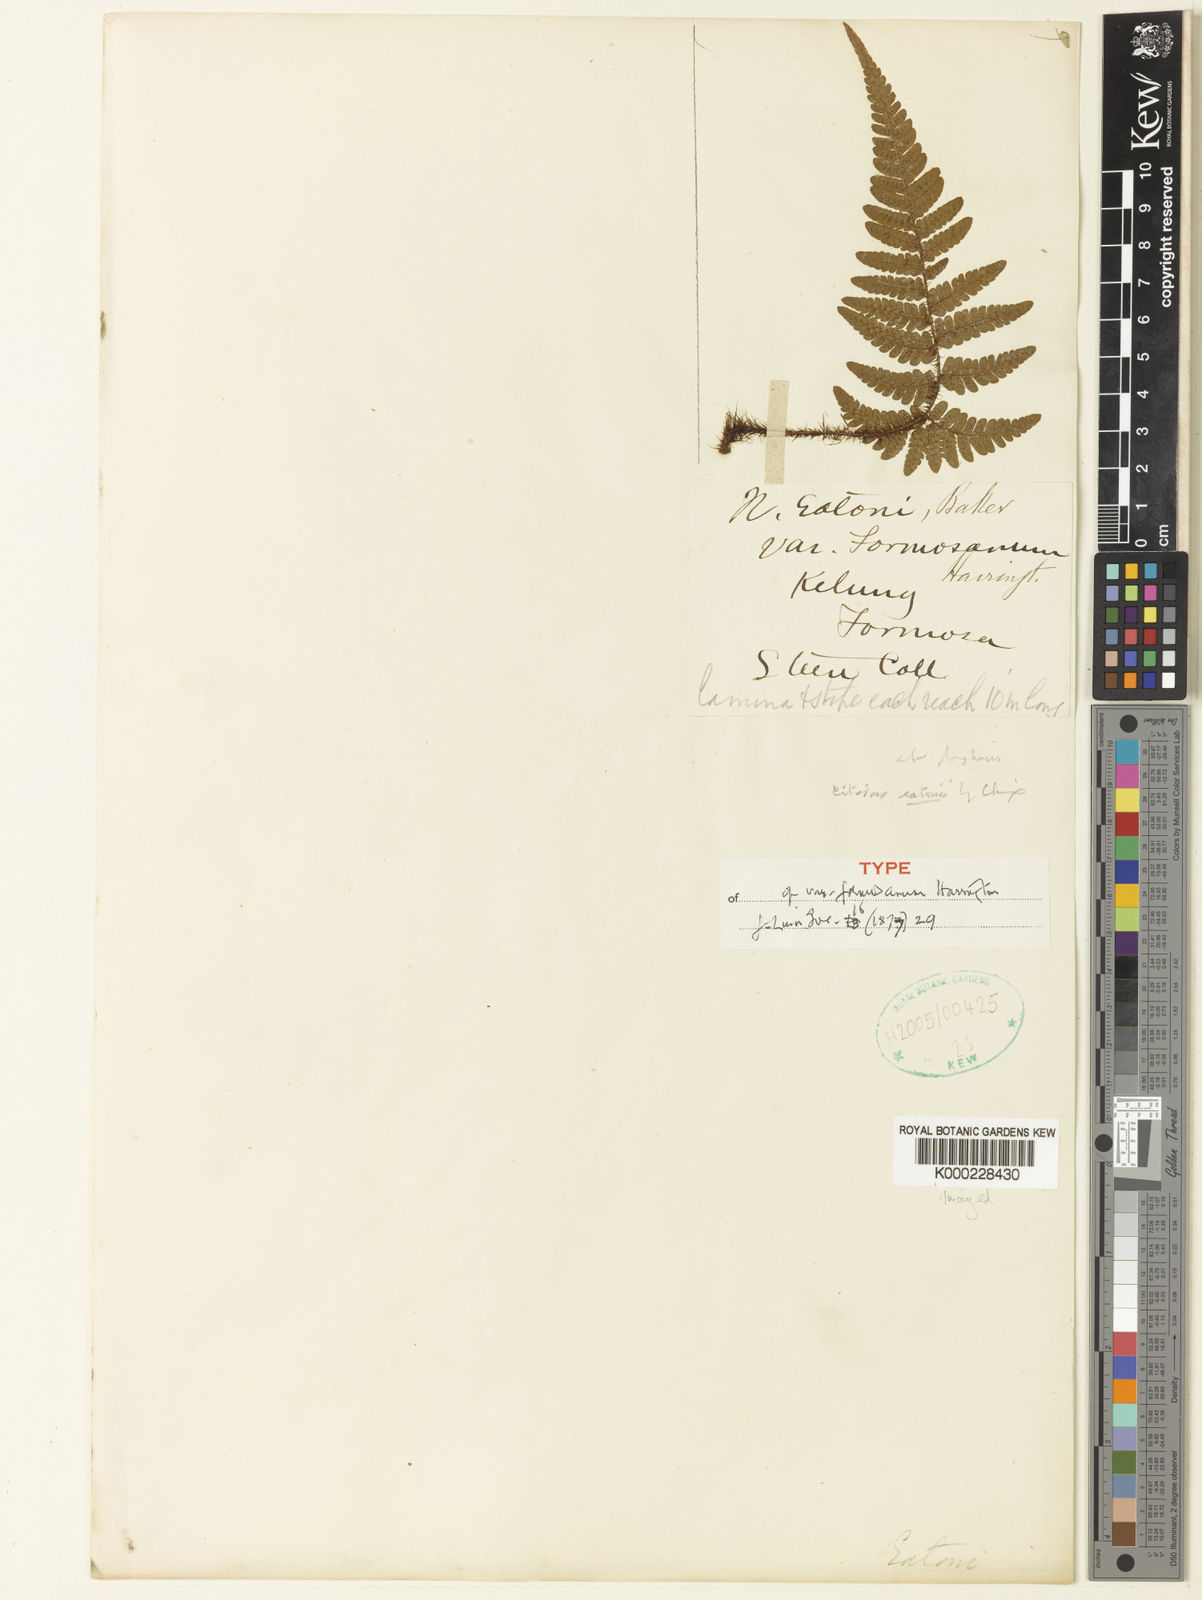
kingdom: Plantae
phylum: Tracheophyta
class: Polypodiopsida
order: Polypodiales
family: Dryopteridaceae
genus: Ctenitis
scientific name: Ctenitis eatonii
